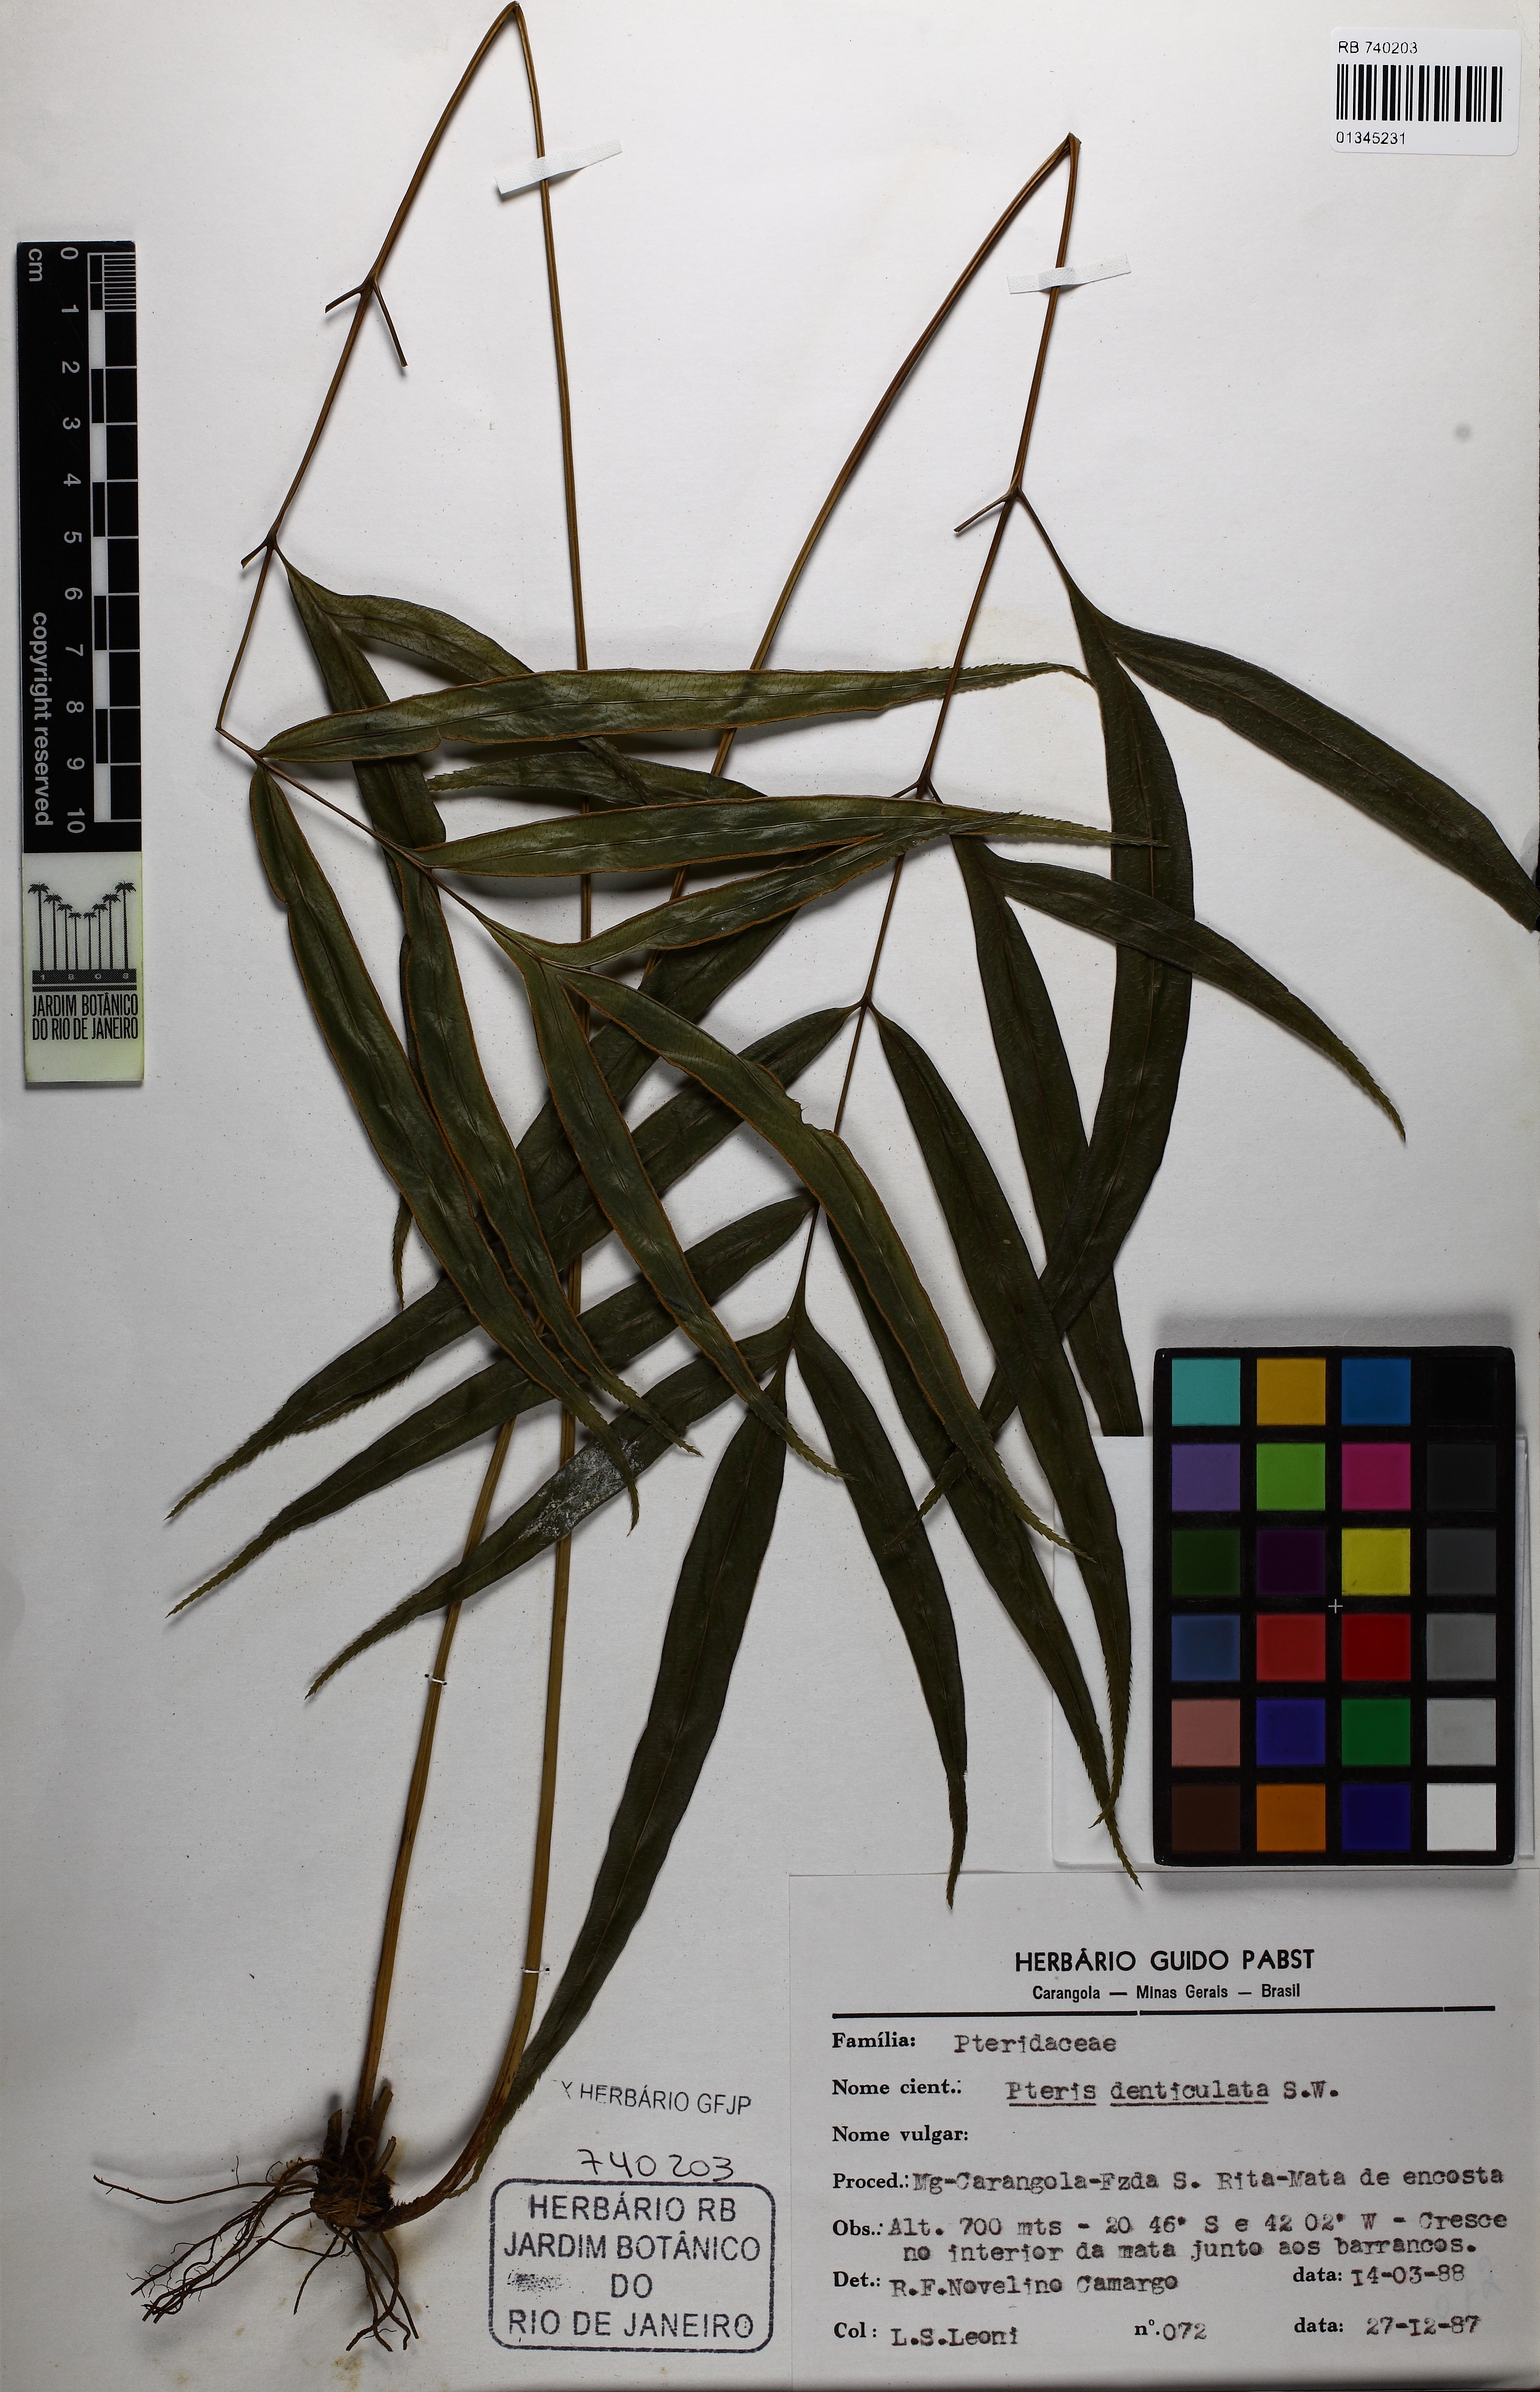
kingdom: Plantae
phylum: Tracheophyta
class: Polypodiopsida
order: Polypodiales
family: Pteridaceae
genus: Pteris
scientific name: Pteris denticulata
